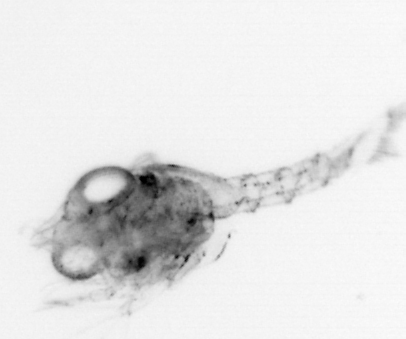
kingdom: Animalia
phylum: Arthropoda
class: Malacostraca
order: Decapoda
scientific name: Decapoda
